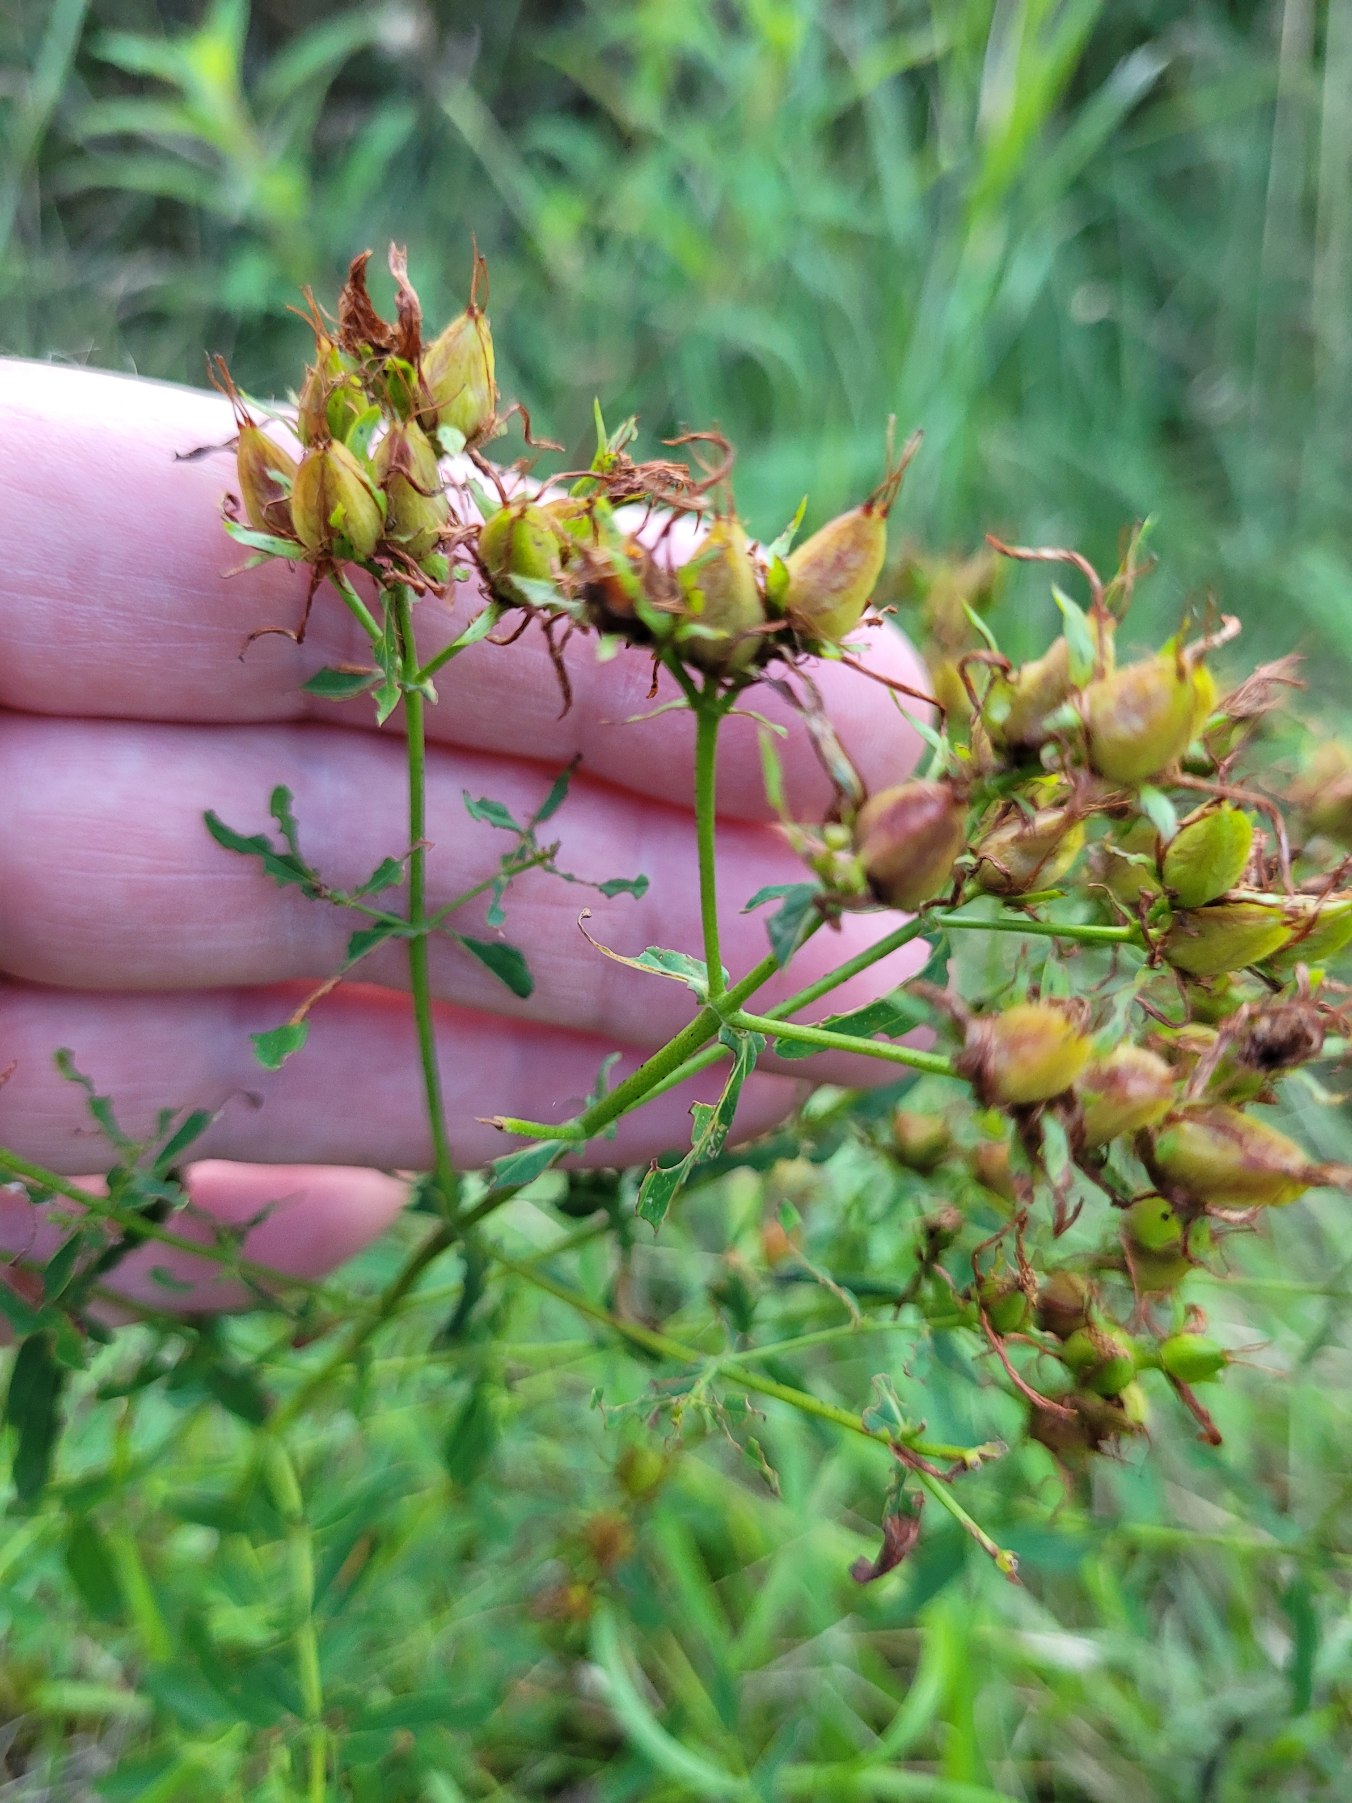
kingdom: Plantae
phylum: Tracheophyta
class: Magnoliopsida
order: Malpighiales
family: Hypericaceae
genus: Hypericum
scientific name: Hypericum perforatum
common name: Prikbladet perikon
